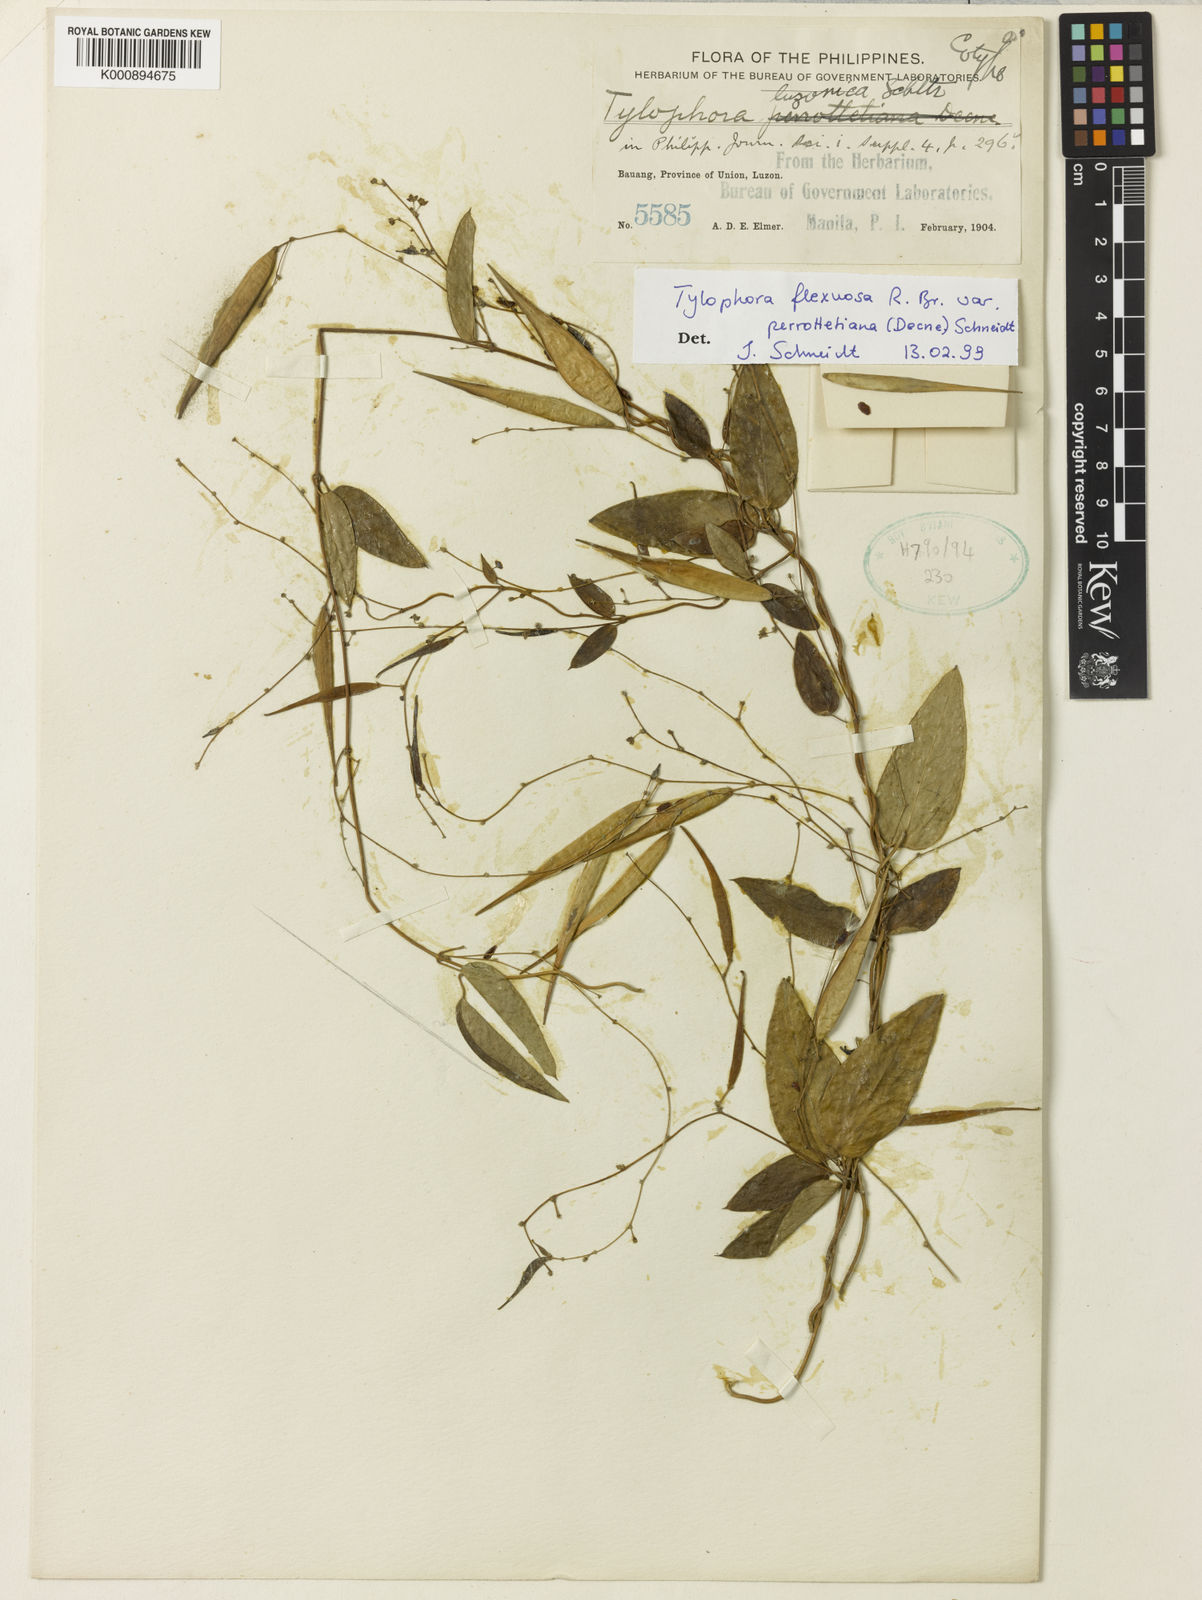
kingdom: Plantae
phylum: Tracheophyta
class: Magnoliopsida
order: Gentianales
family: Apocynaceae
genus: Vincetoxicum
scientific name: Vincetoxicum flexuosum
